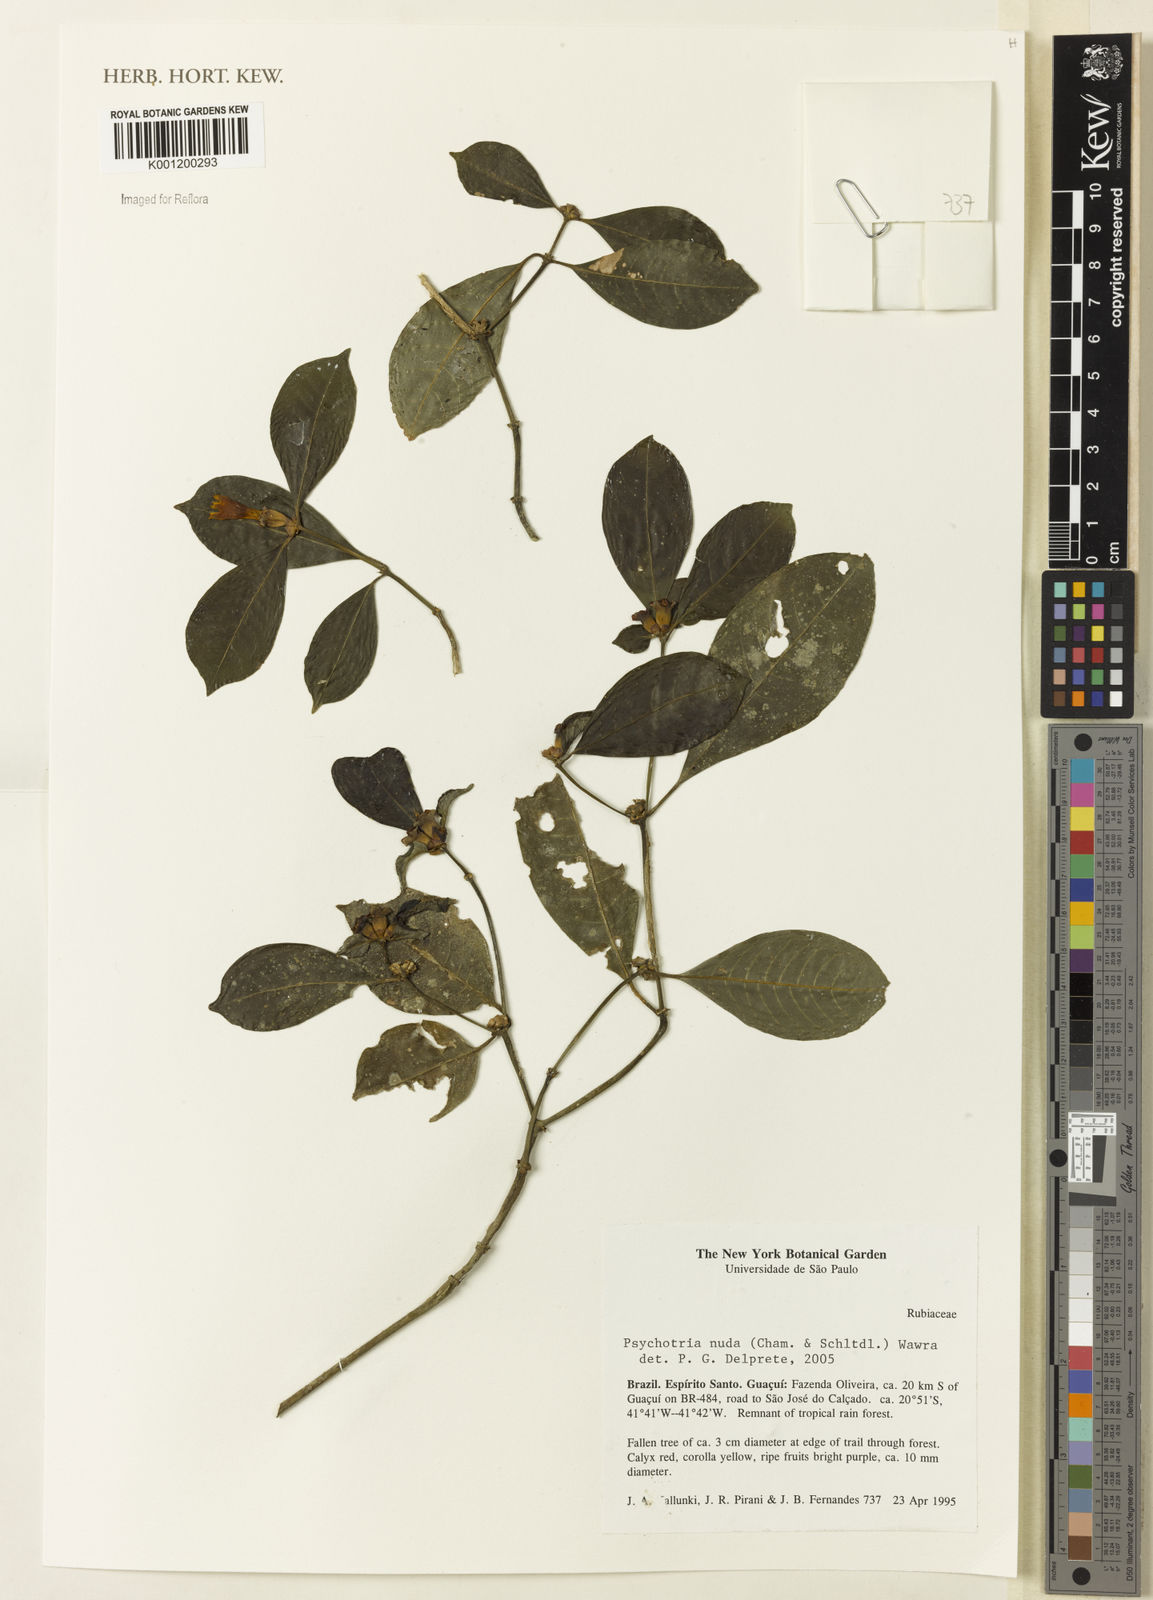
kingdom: Plantae
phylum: Tracheophyta
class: Magnoliopsida
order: Gentianales
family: Rubiaceae
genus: Psychotria
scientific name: Psychotria nuda
